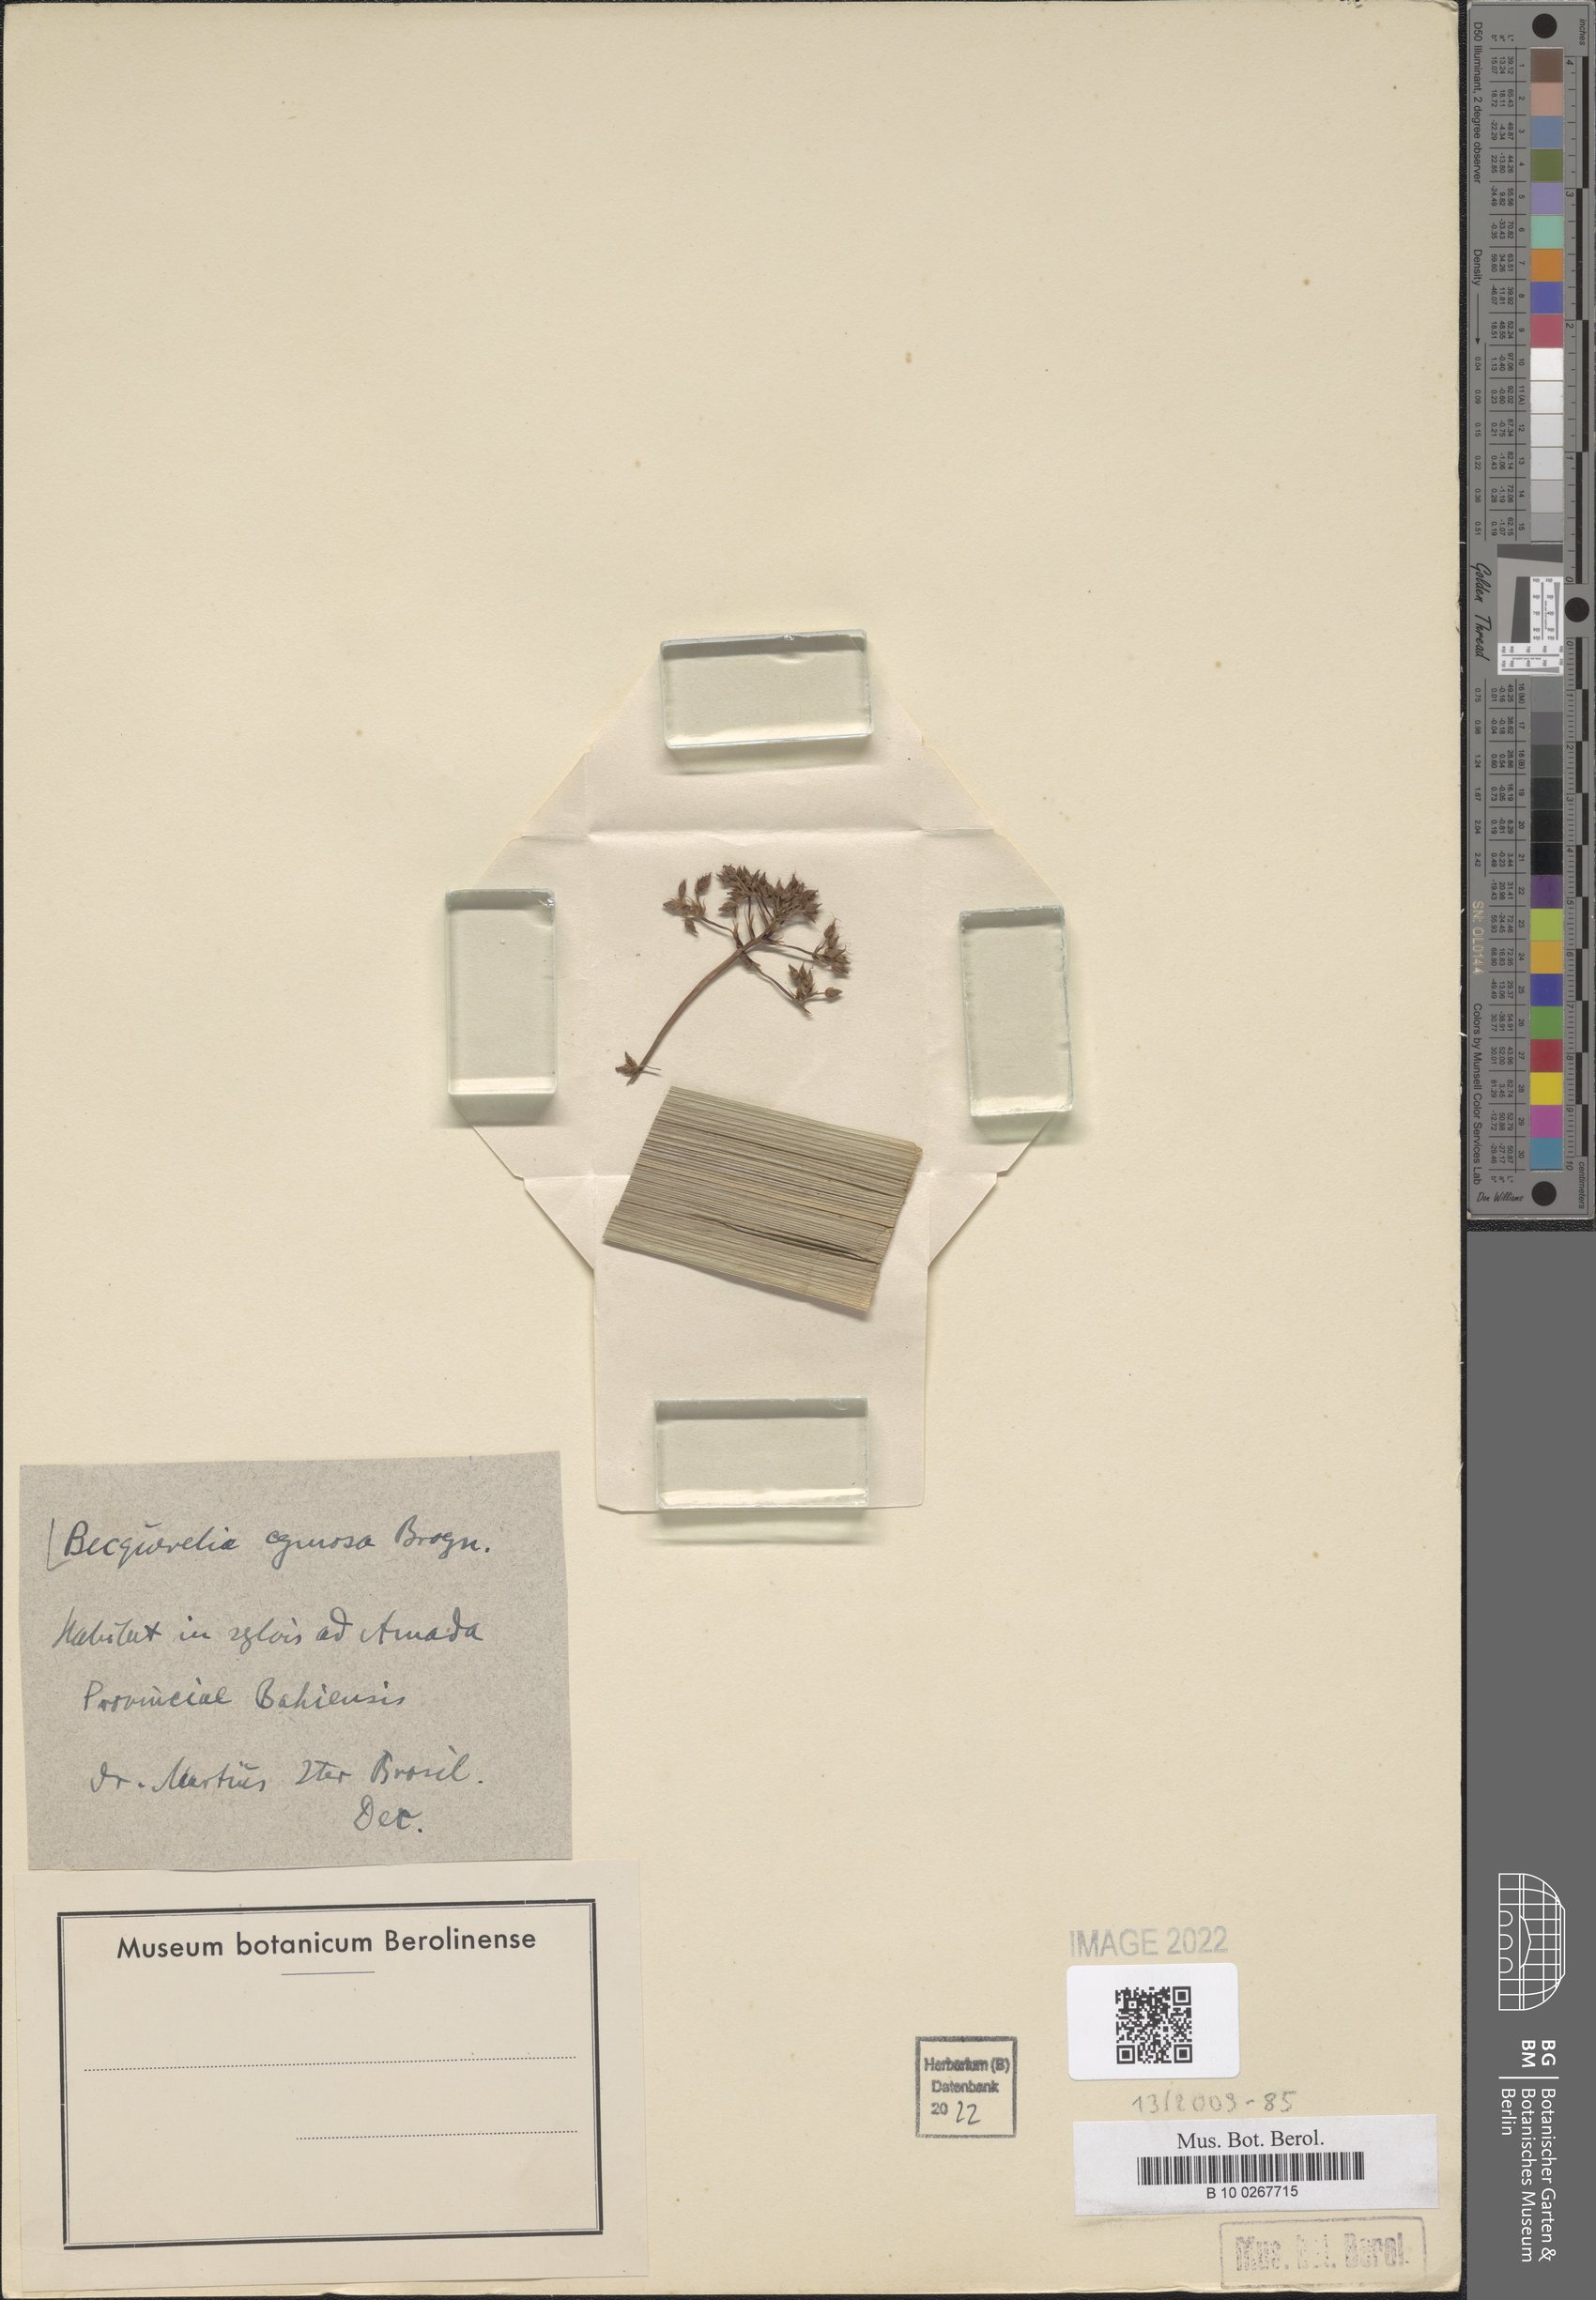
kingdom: Plantae
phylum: Tracheophyta
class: Liliopsida
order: Poales
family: Cyperaceae
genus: Becquerelia
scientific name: Becquerelia cymosa
